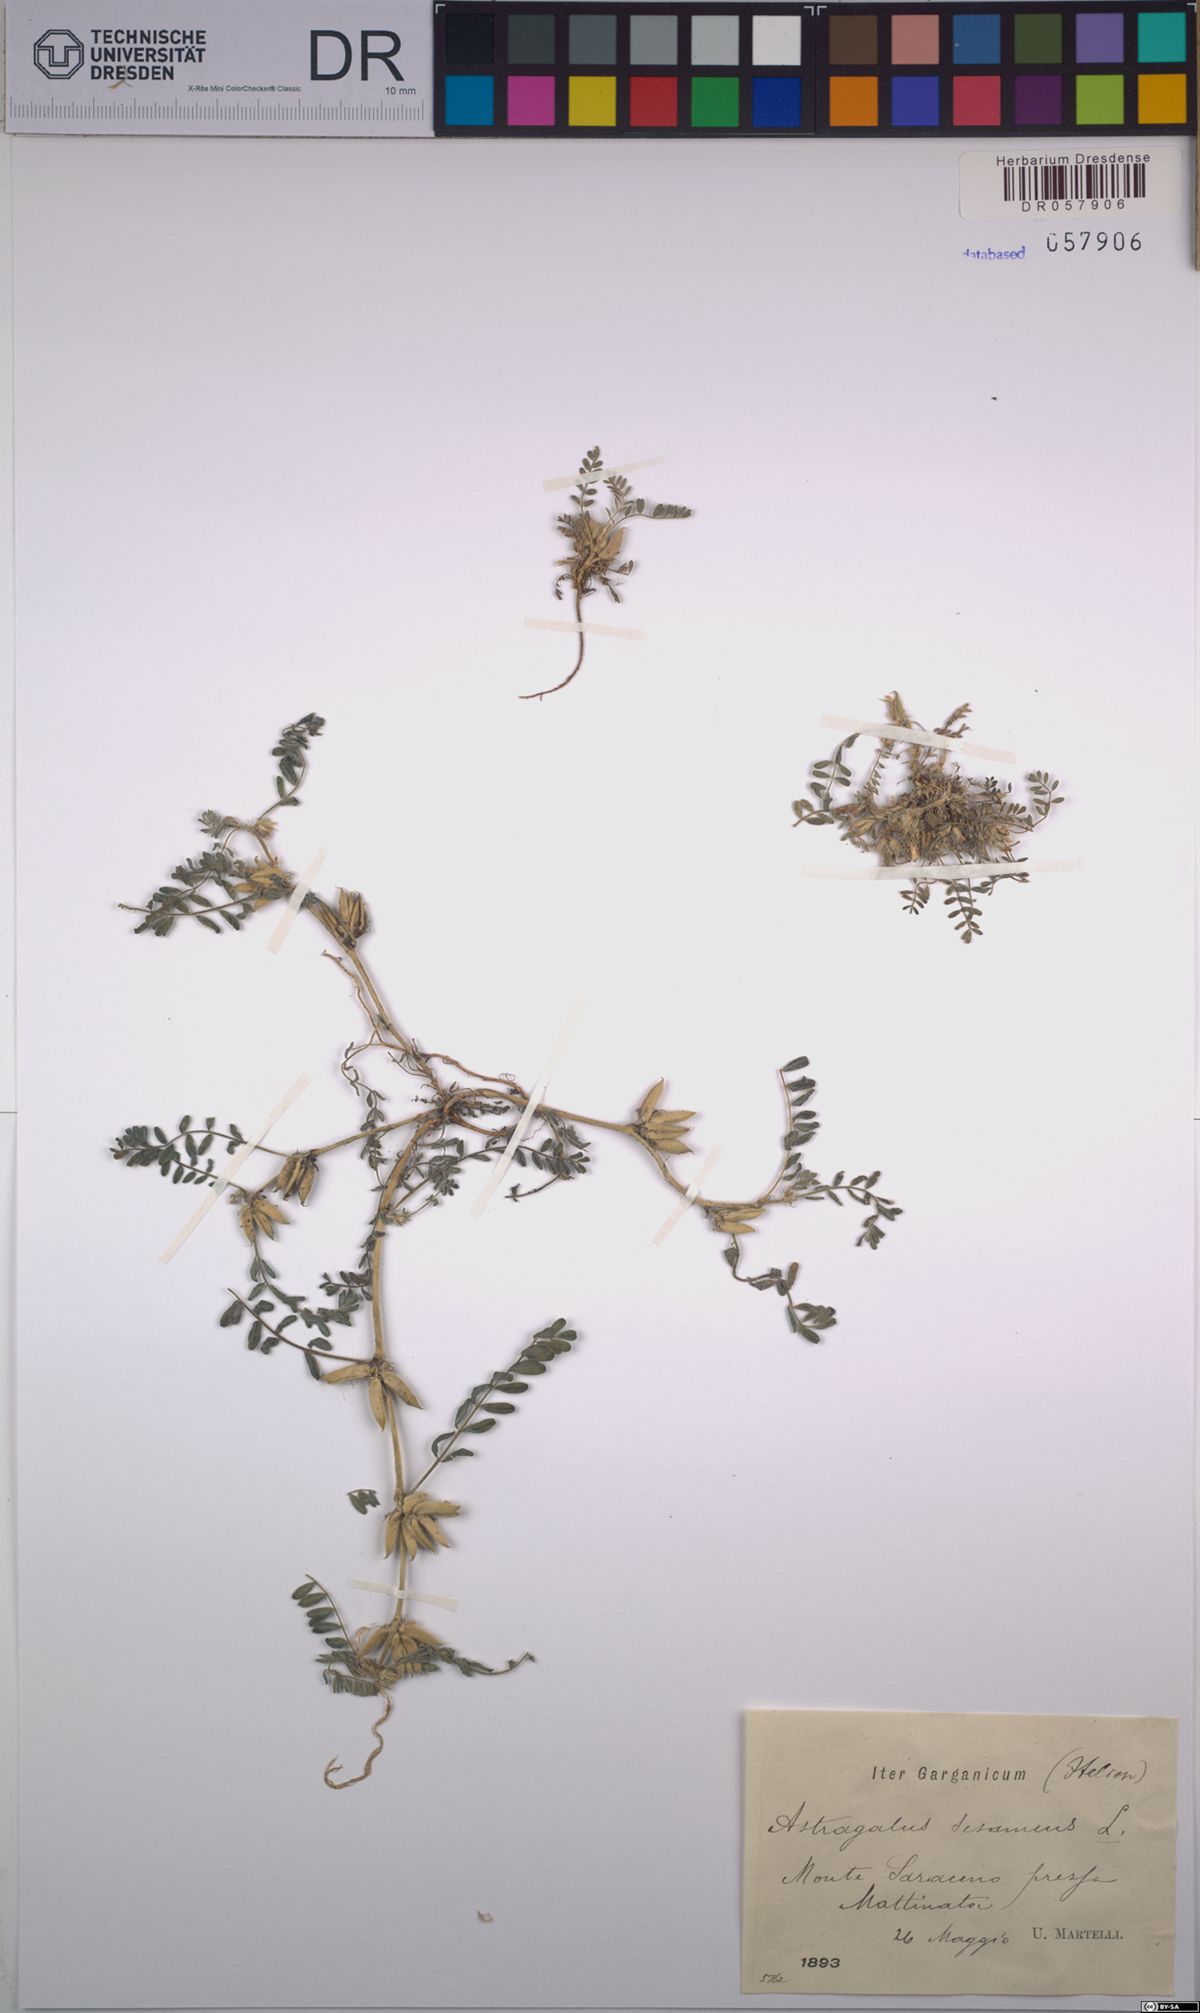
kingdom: Plantae
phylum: Tracheophyta
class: Magnoliopsida
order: Fabales
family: Fabaceae
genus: Astragalus
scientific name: Astragalus sesameus
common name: Purple milk-vetch
